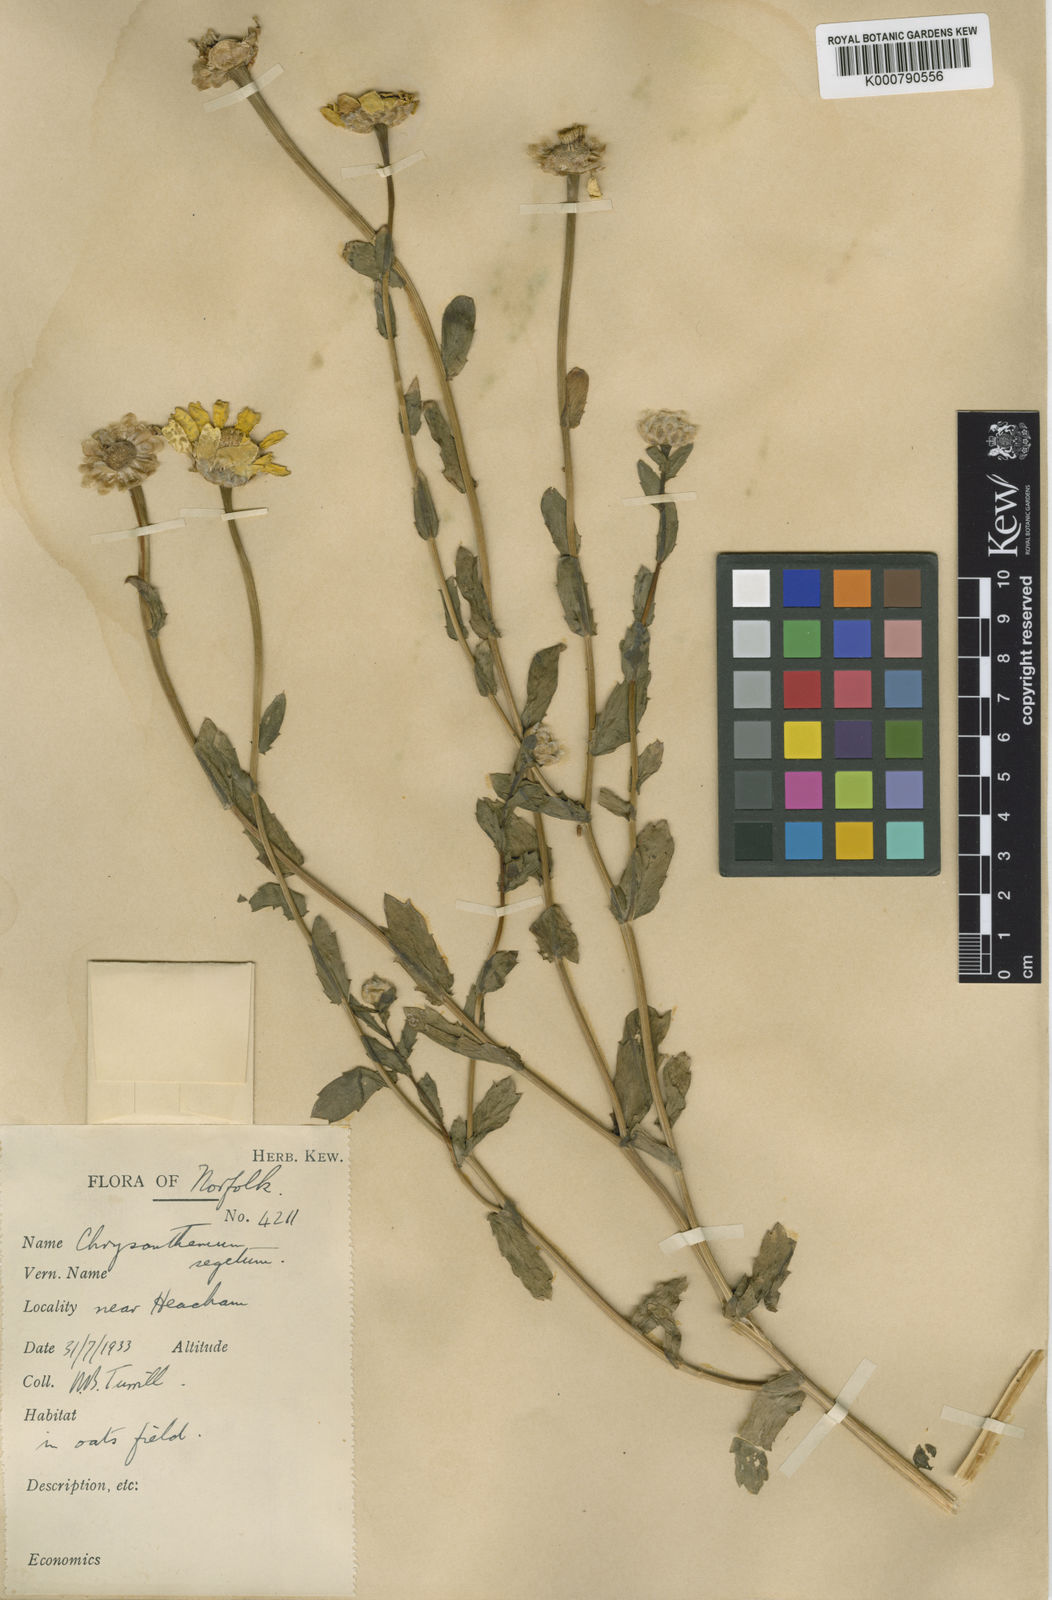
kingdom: Plantae
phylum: Tracheophyta
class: Magnoliopsida
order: Asterales
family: Asteraceae
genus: Glebionis
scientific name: Glebionis segetum
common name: Corndaisy
